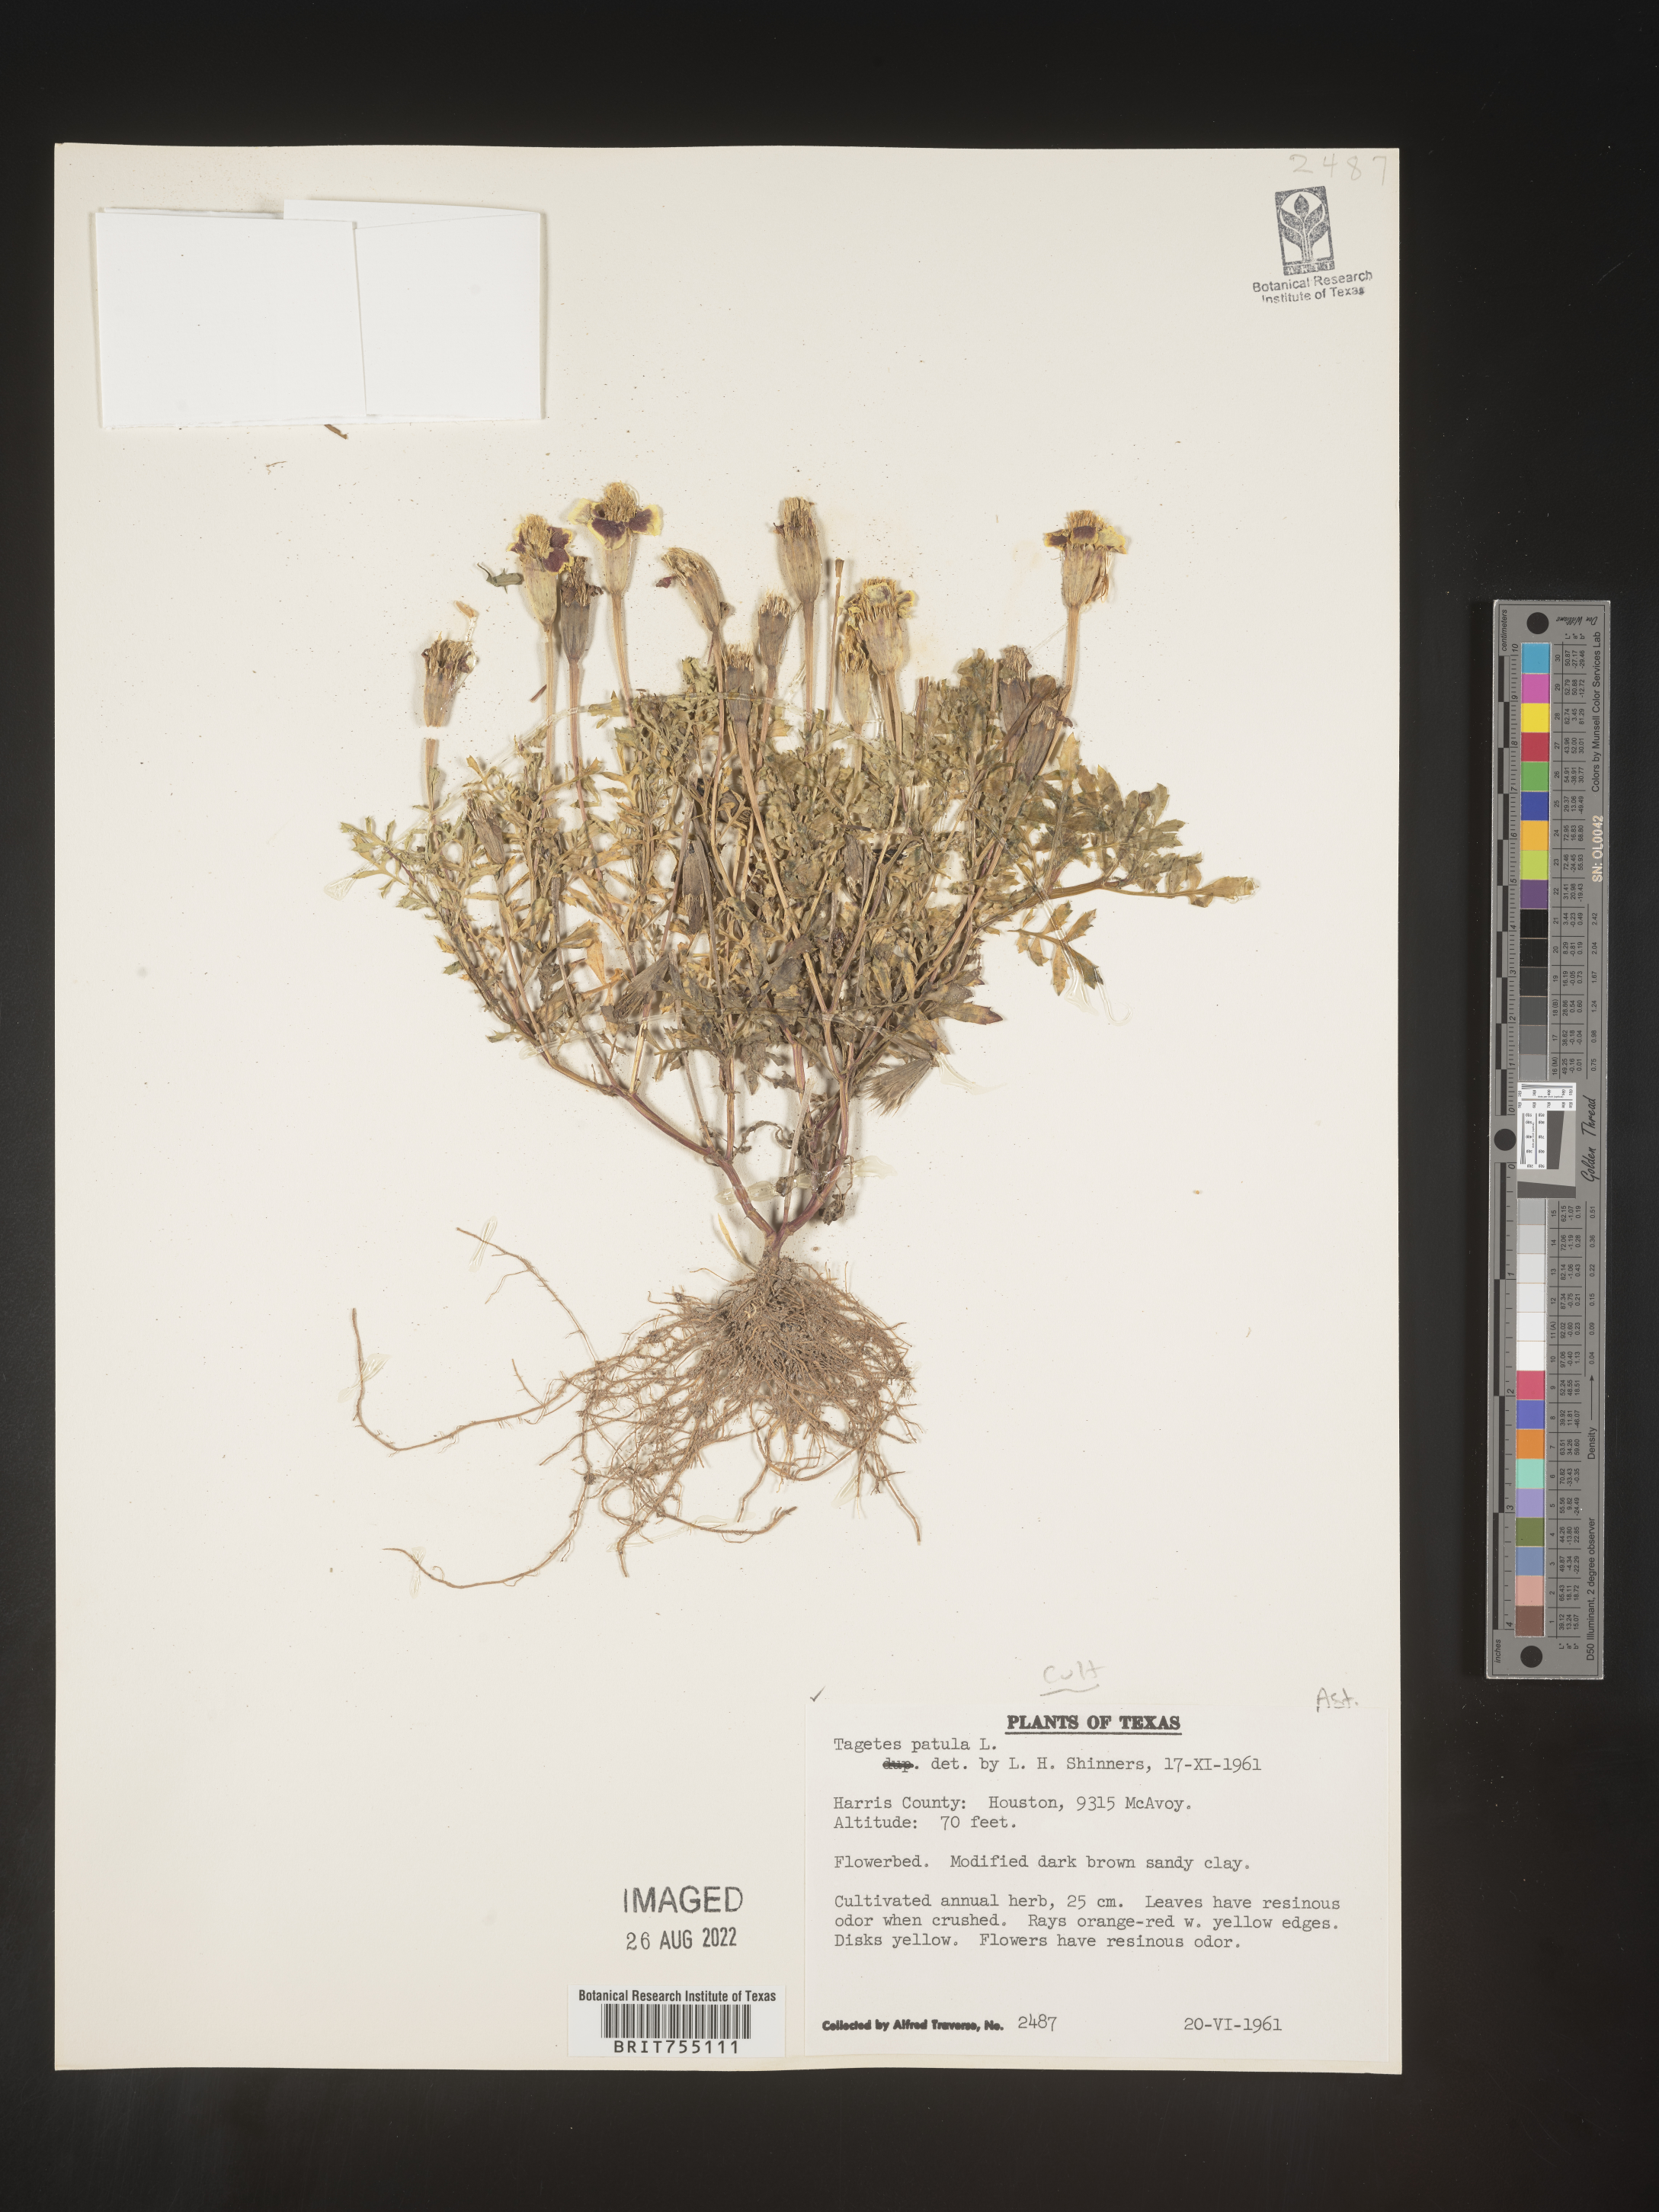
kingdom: Plantae
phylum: Tracheophyta
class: Magnoliopsida
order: Asterales
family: Asteraceae
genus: Tagetes
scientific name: Tagetes
